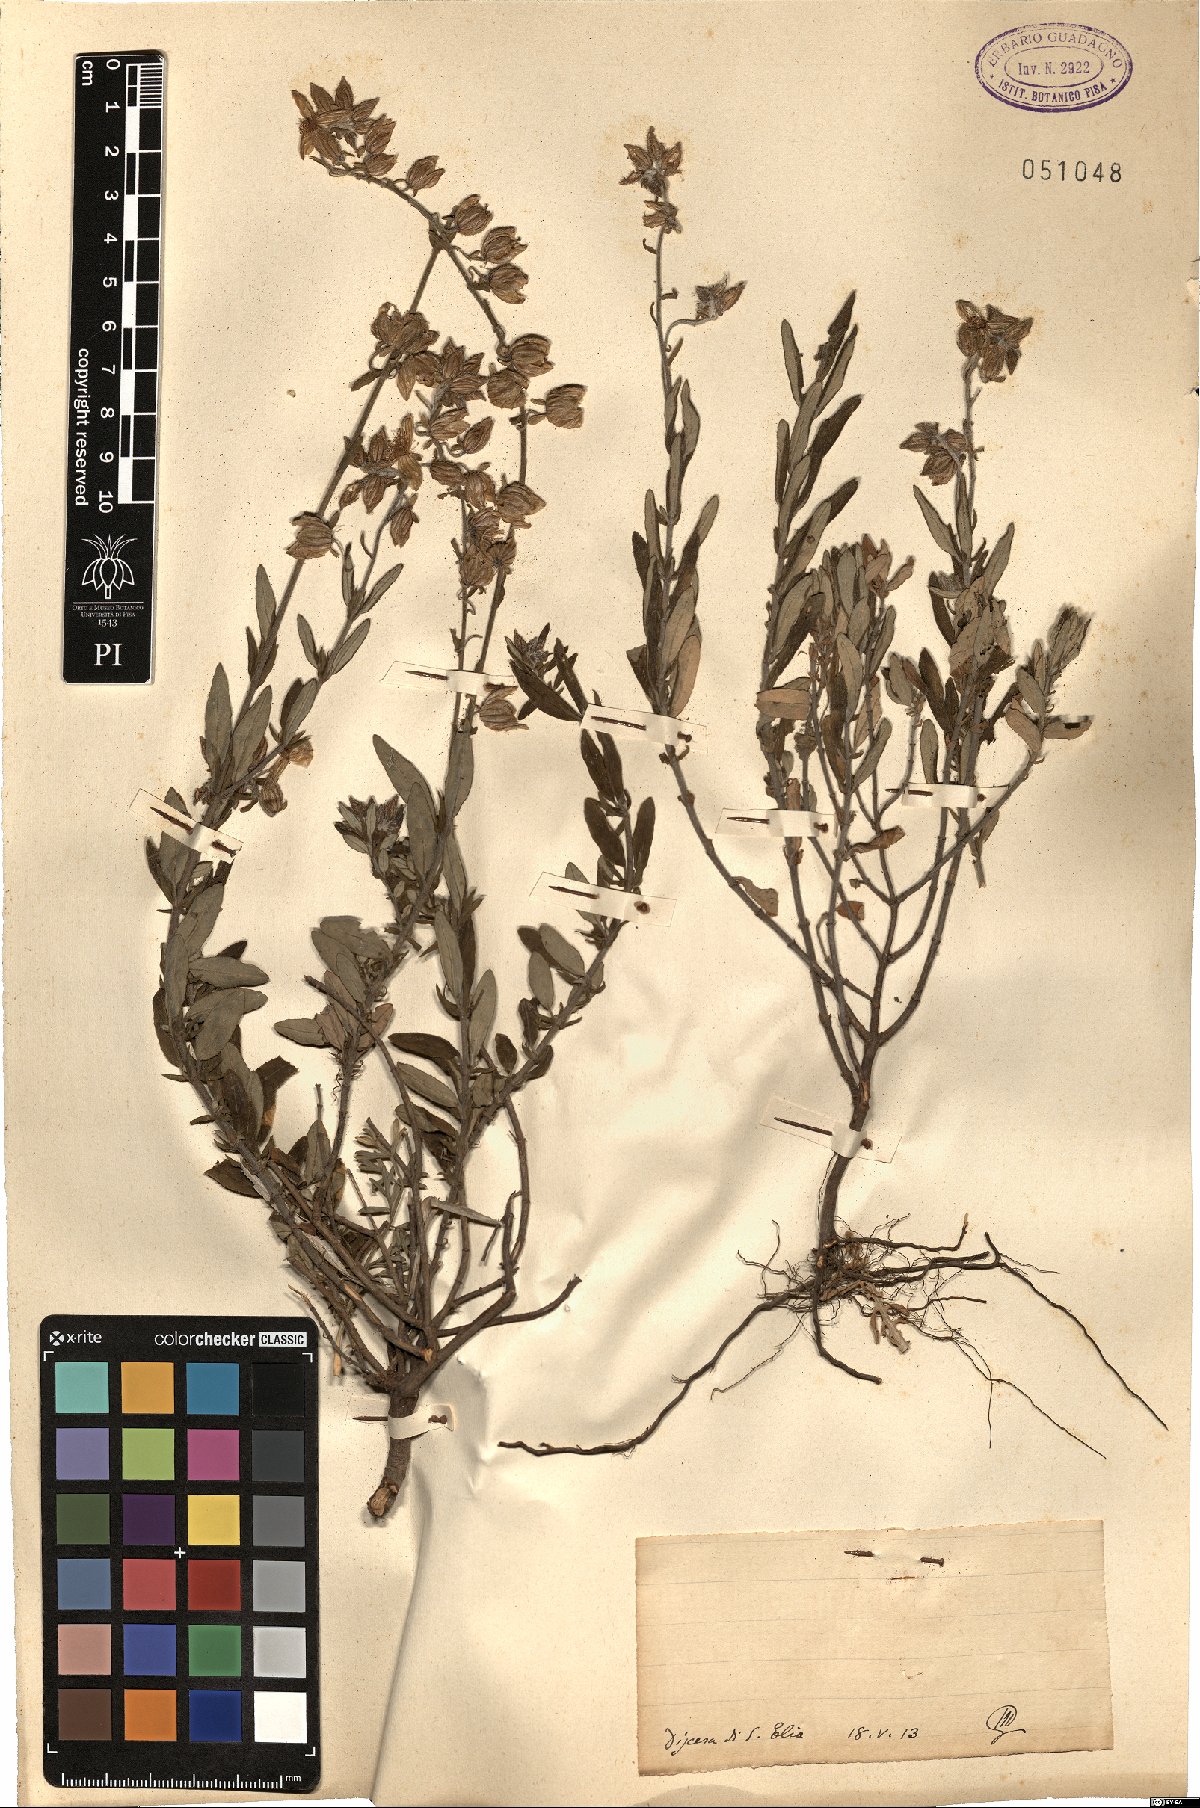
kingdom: Plantae
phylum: Tracheophyta
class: Magnoliopsida
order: Malvales
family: Cistaceae
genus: Helianthemum
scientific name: Helianthemum
